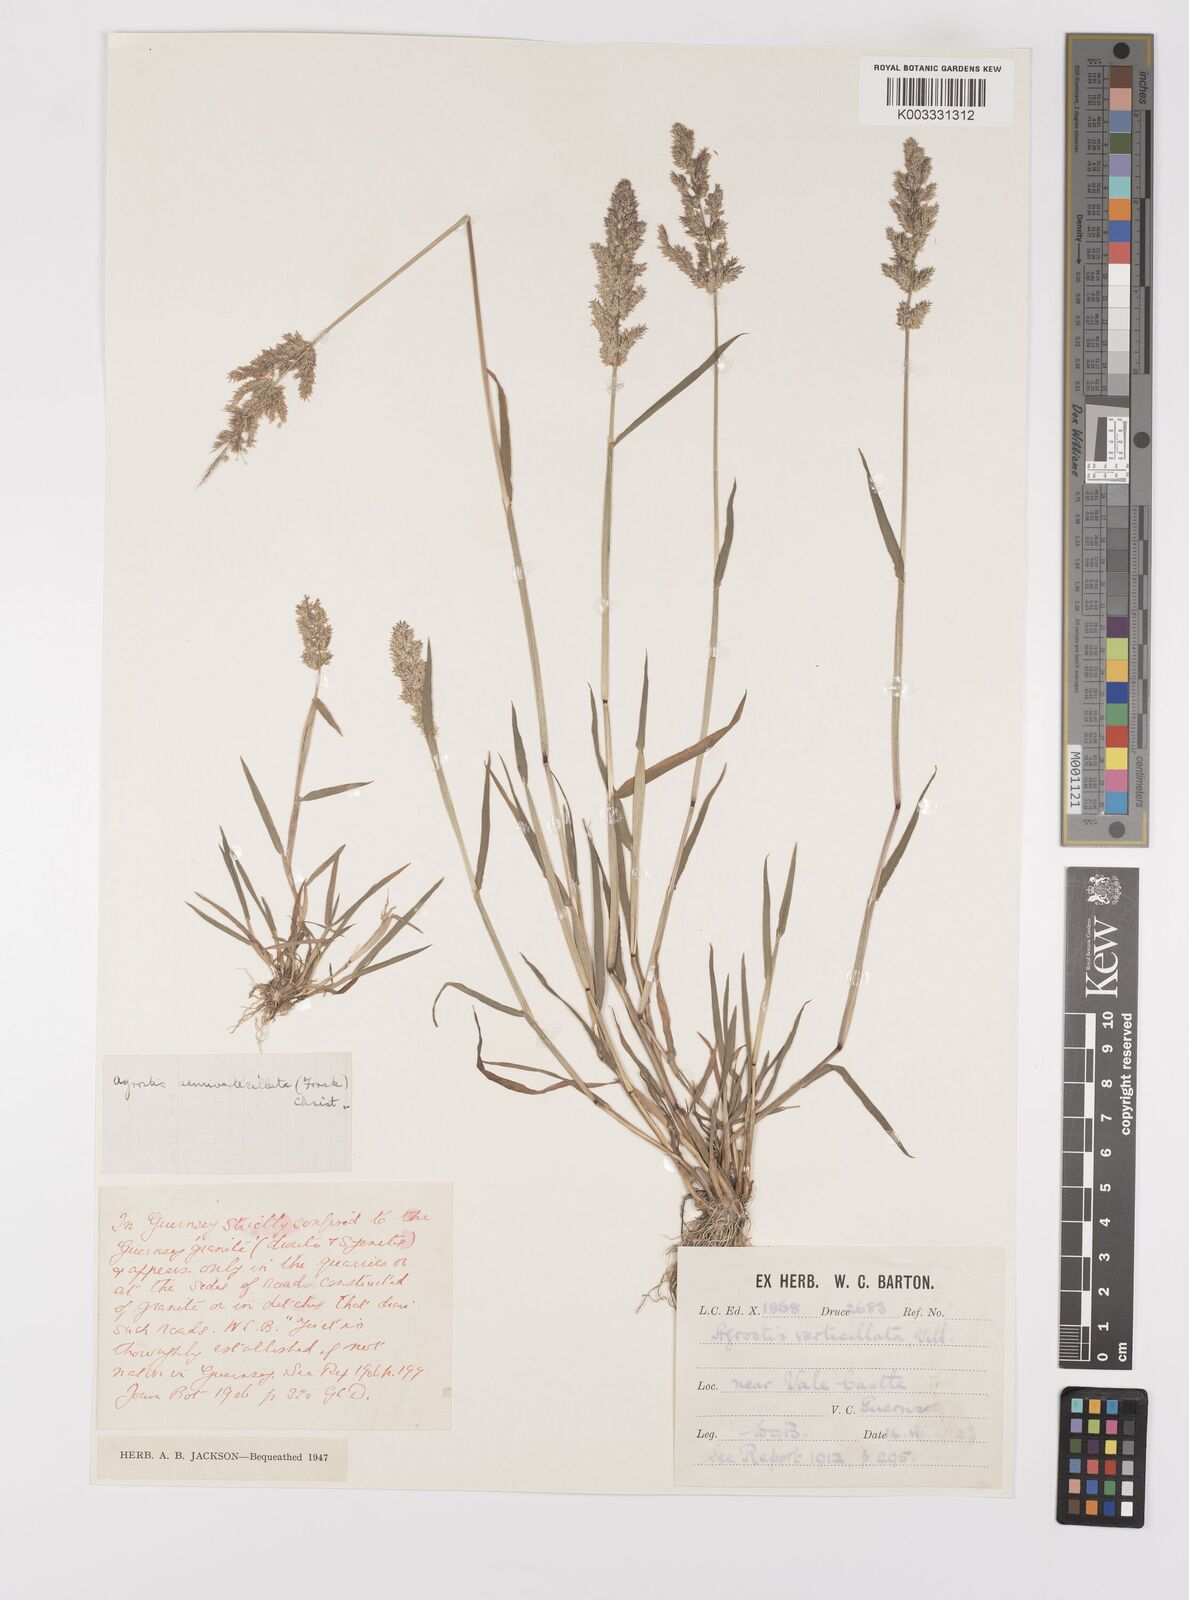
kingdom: Plantae
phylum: Tracheophyta
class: Liliopsida
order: Poales
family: Poaceae
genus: Polypogon
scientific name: Polypogon viridis
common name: Water bent
